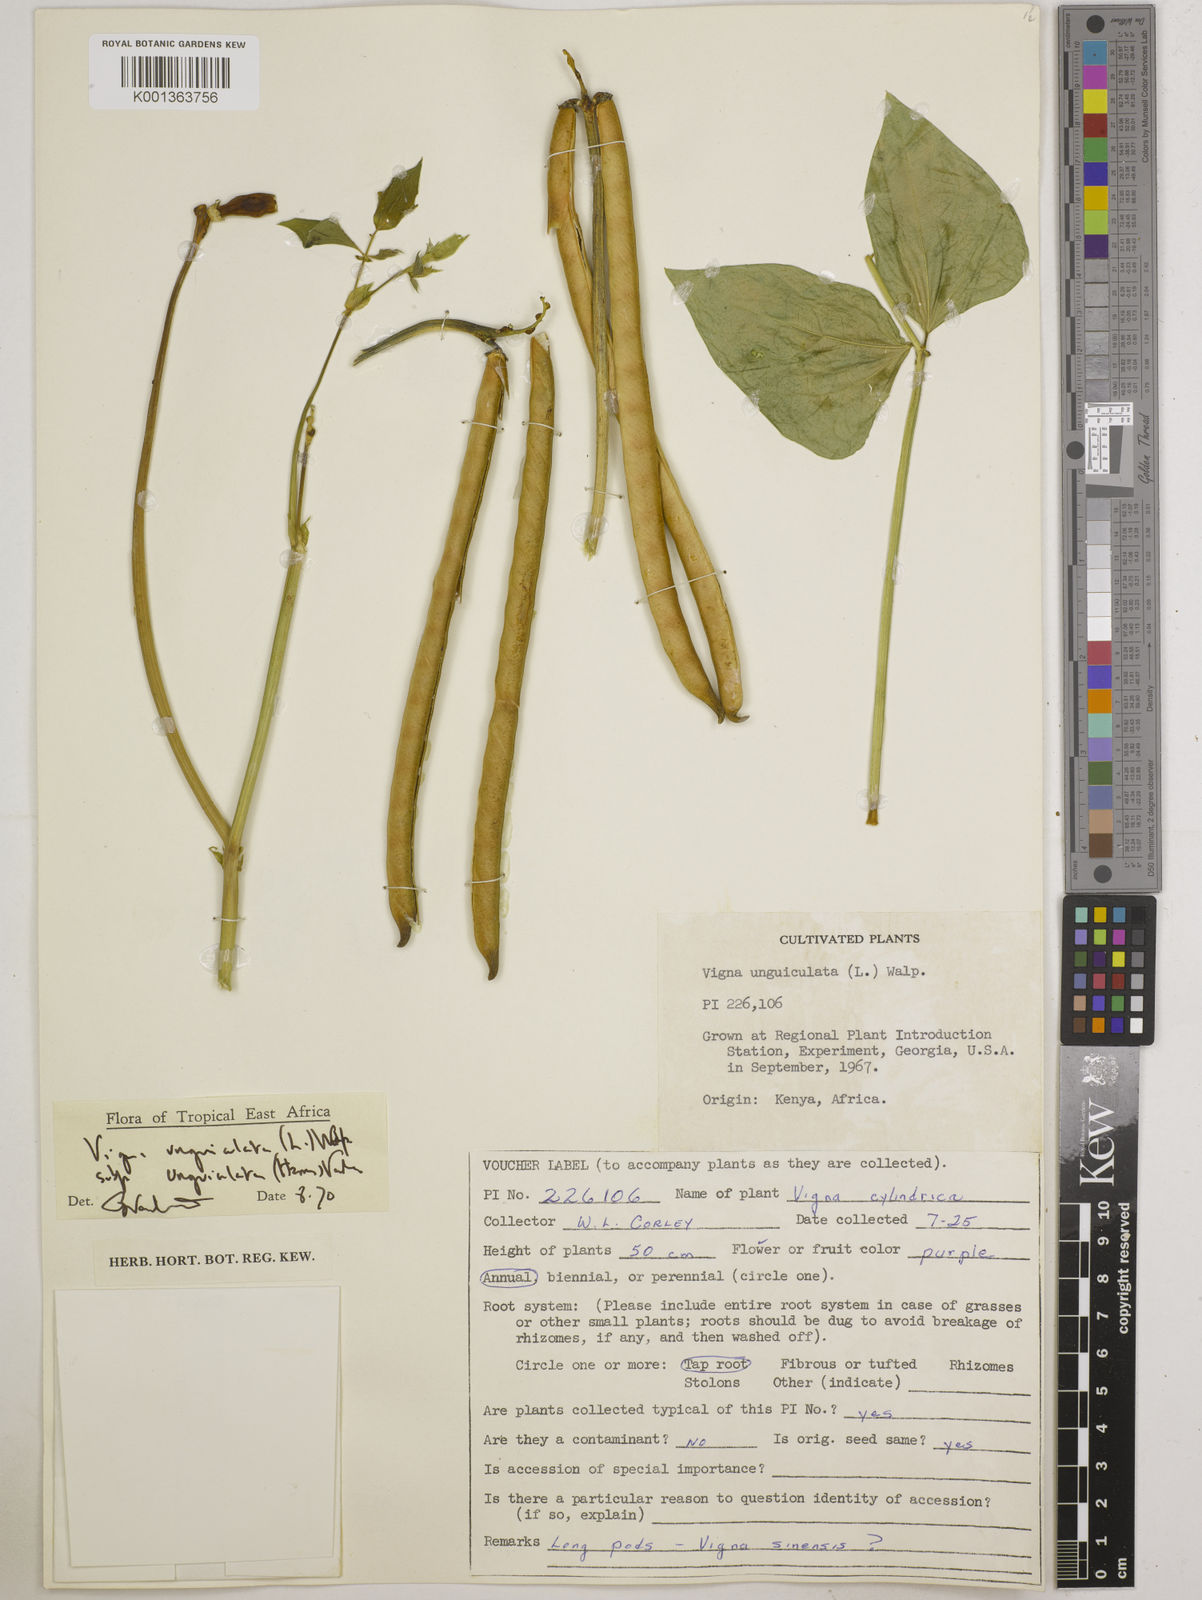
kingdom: Plantae
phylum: Tracheophyta
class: Magnoliopsida
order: Fabales
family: Fabaceae
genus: Vigna
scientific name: Vigna unguiculata
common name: Cowpea
